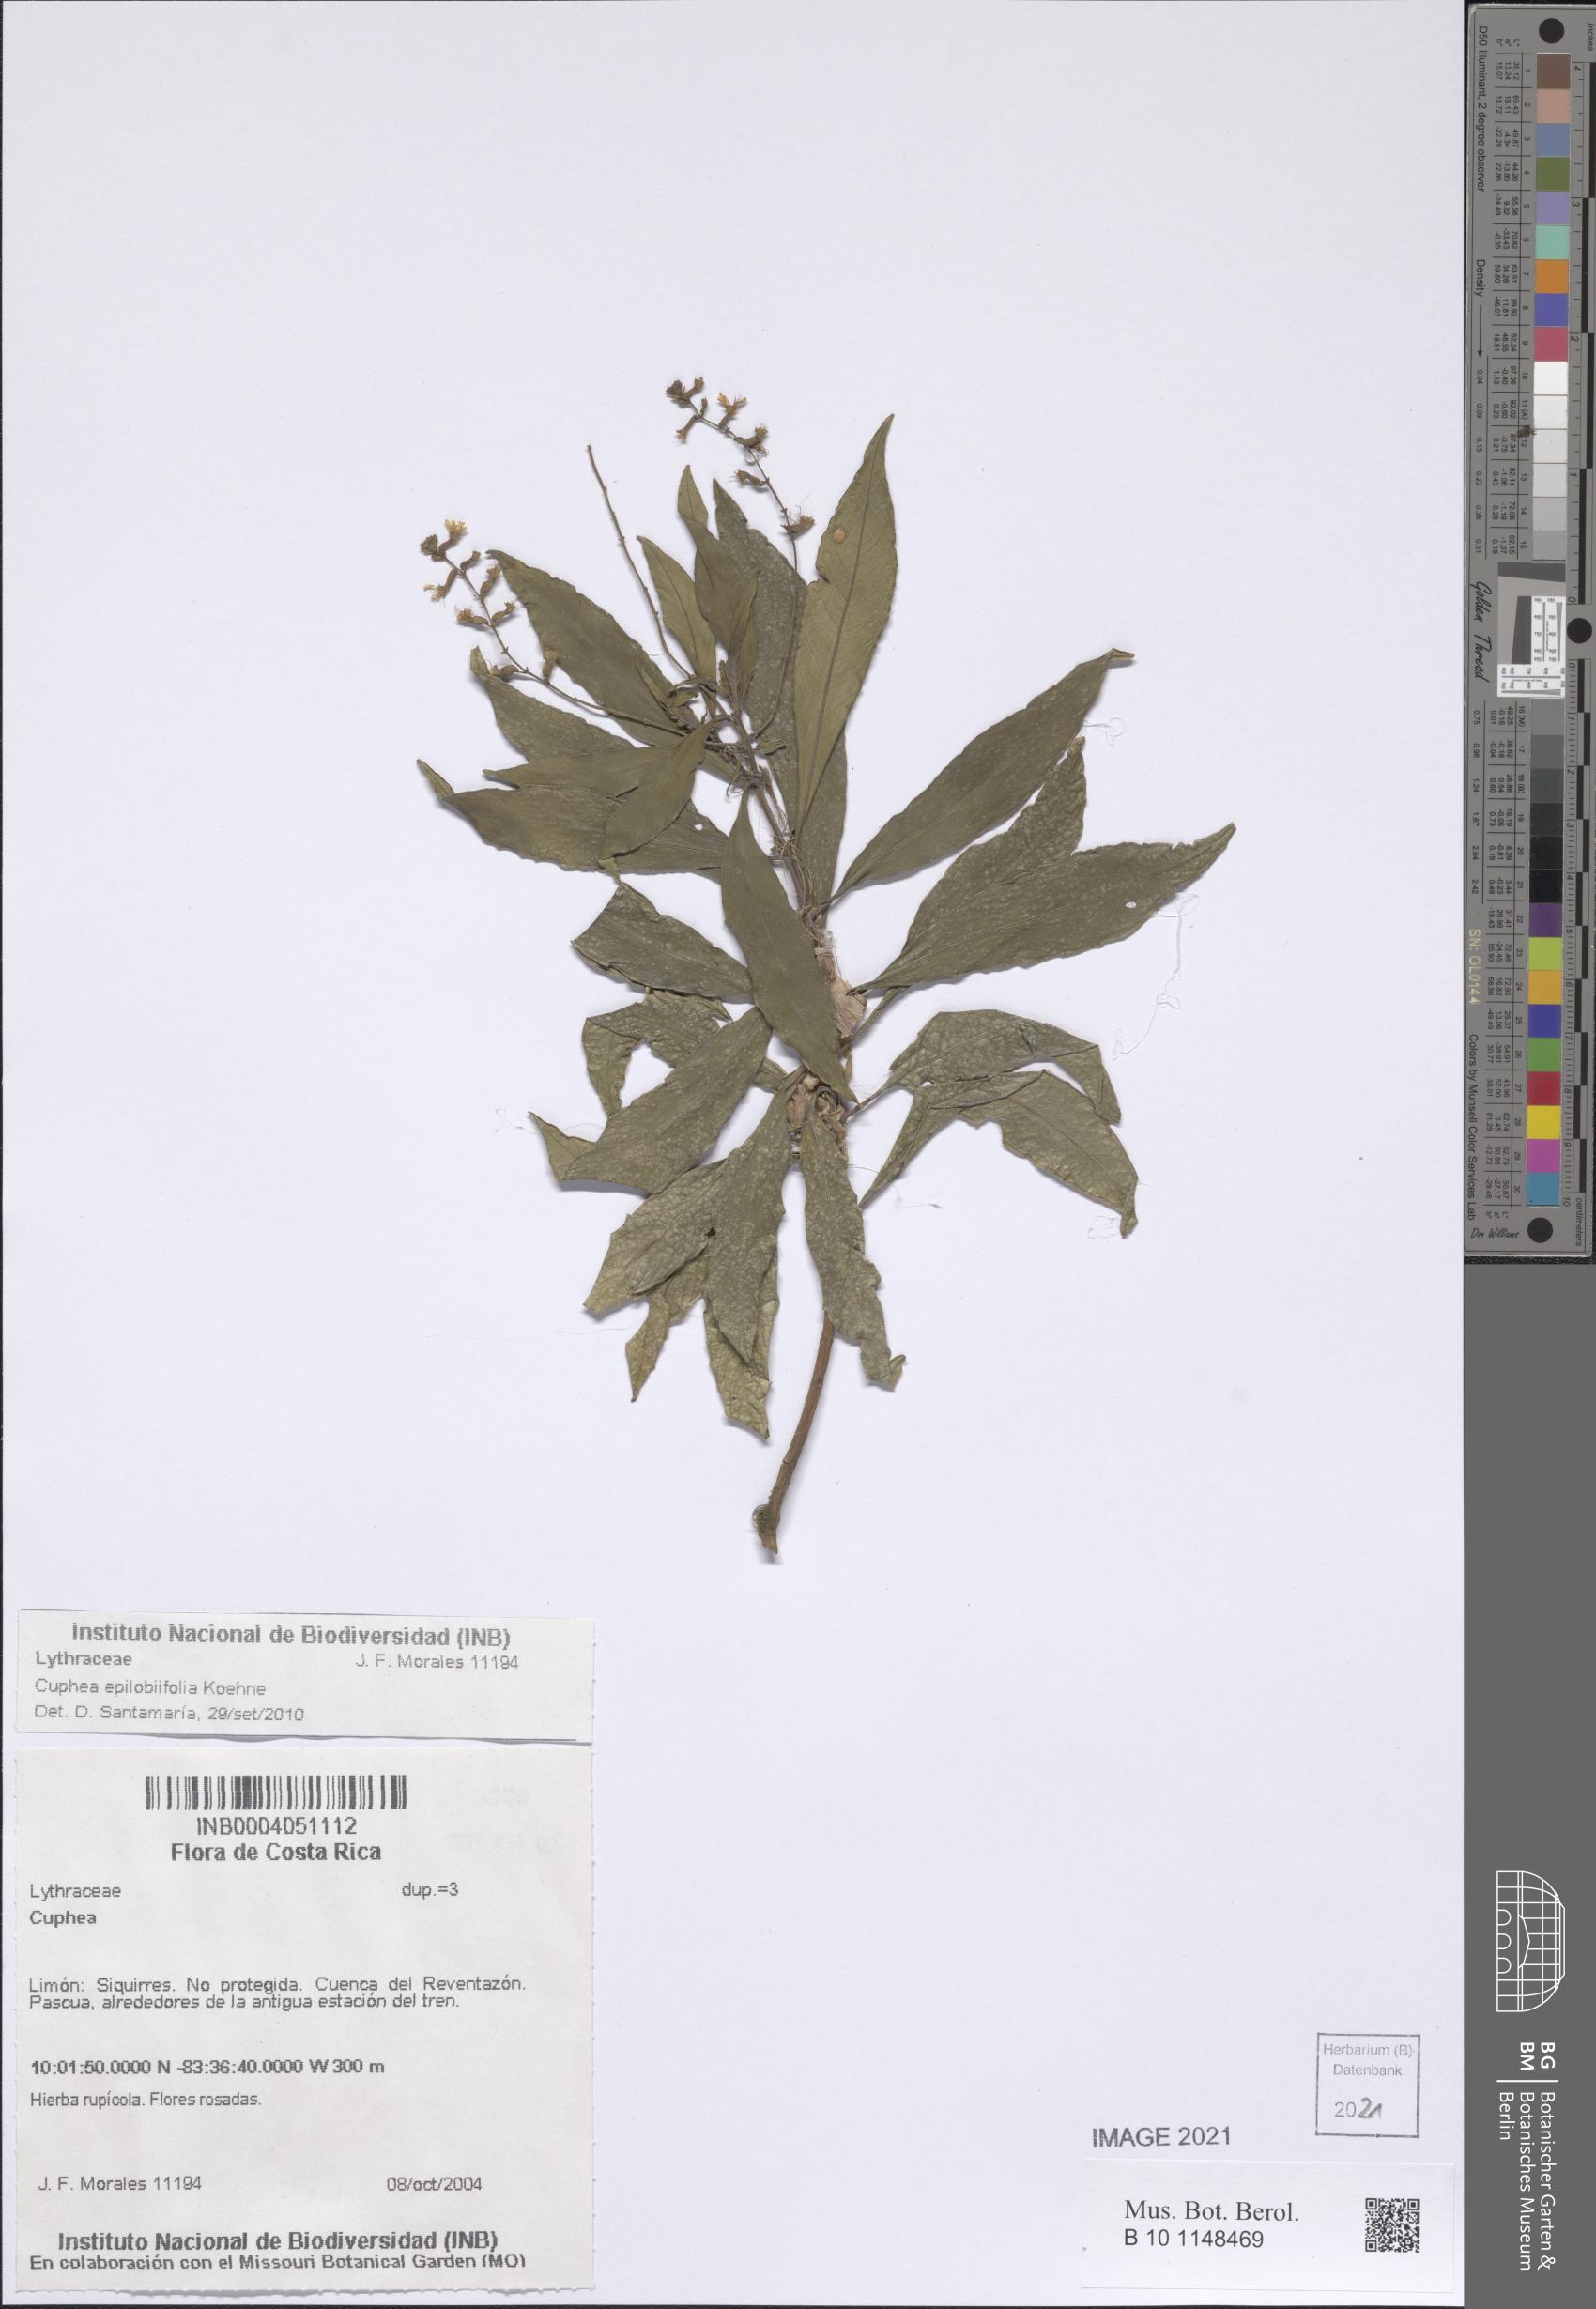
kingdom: Plantae
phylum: Tracheophyta
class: Magnoliopsida
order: Myrtales
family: Lythraceae
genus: Cuphea
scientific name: Cuphea epilobiifolia
